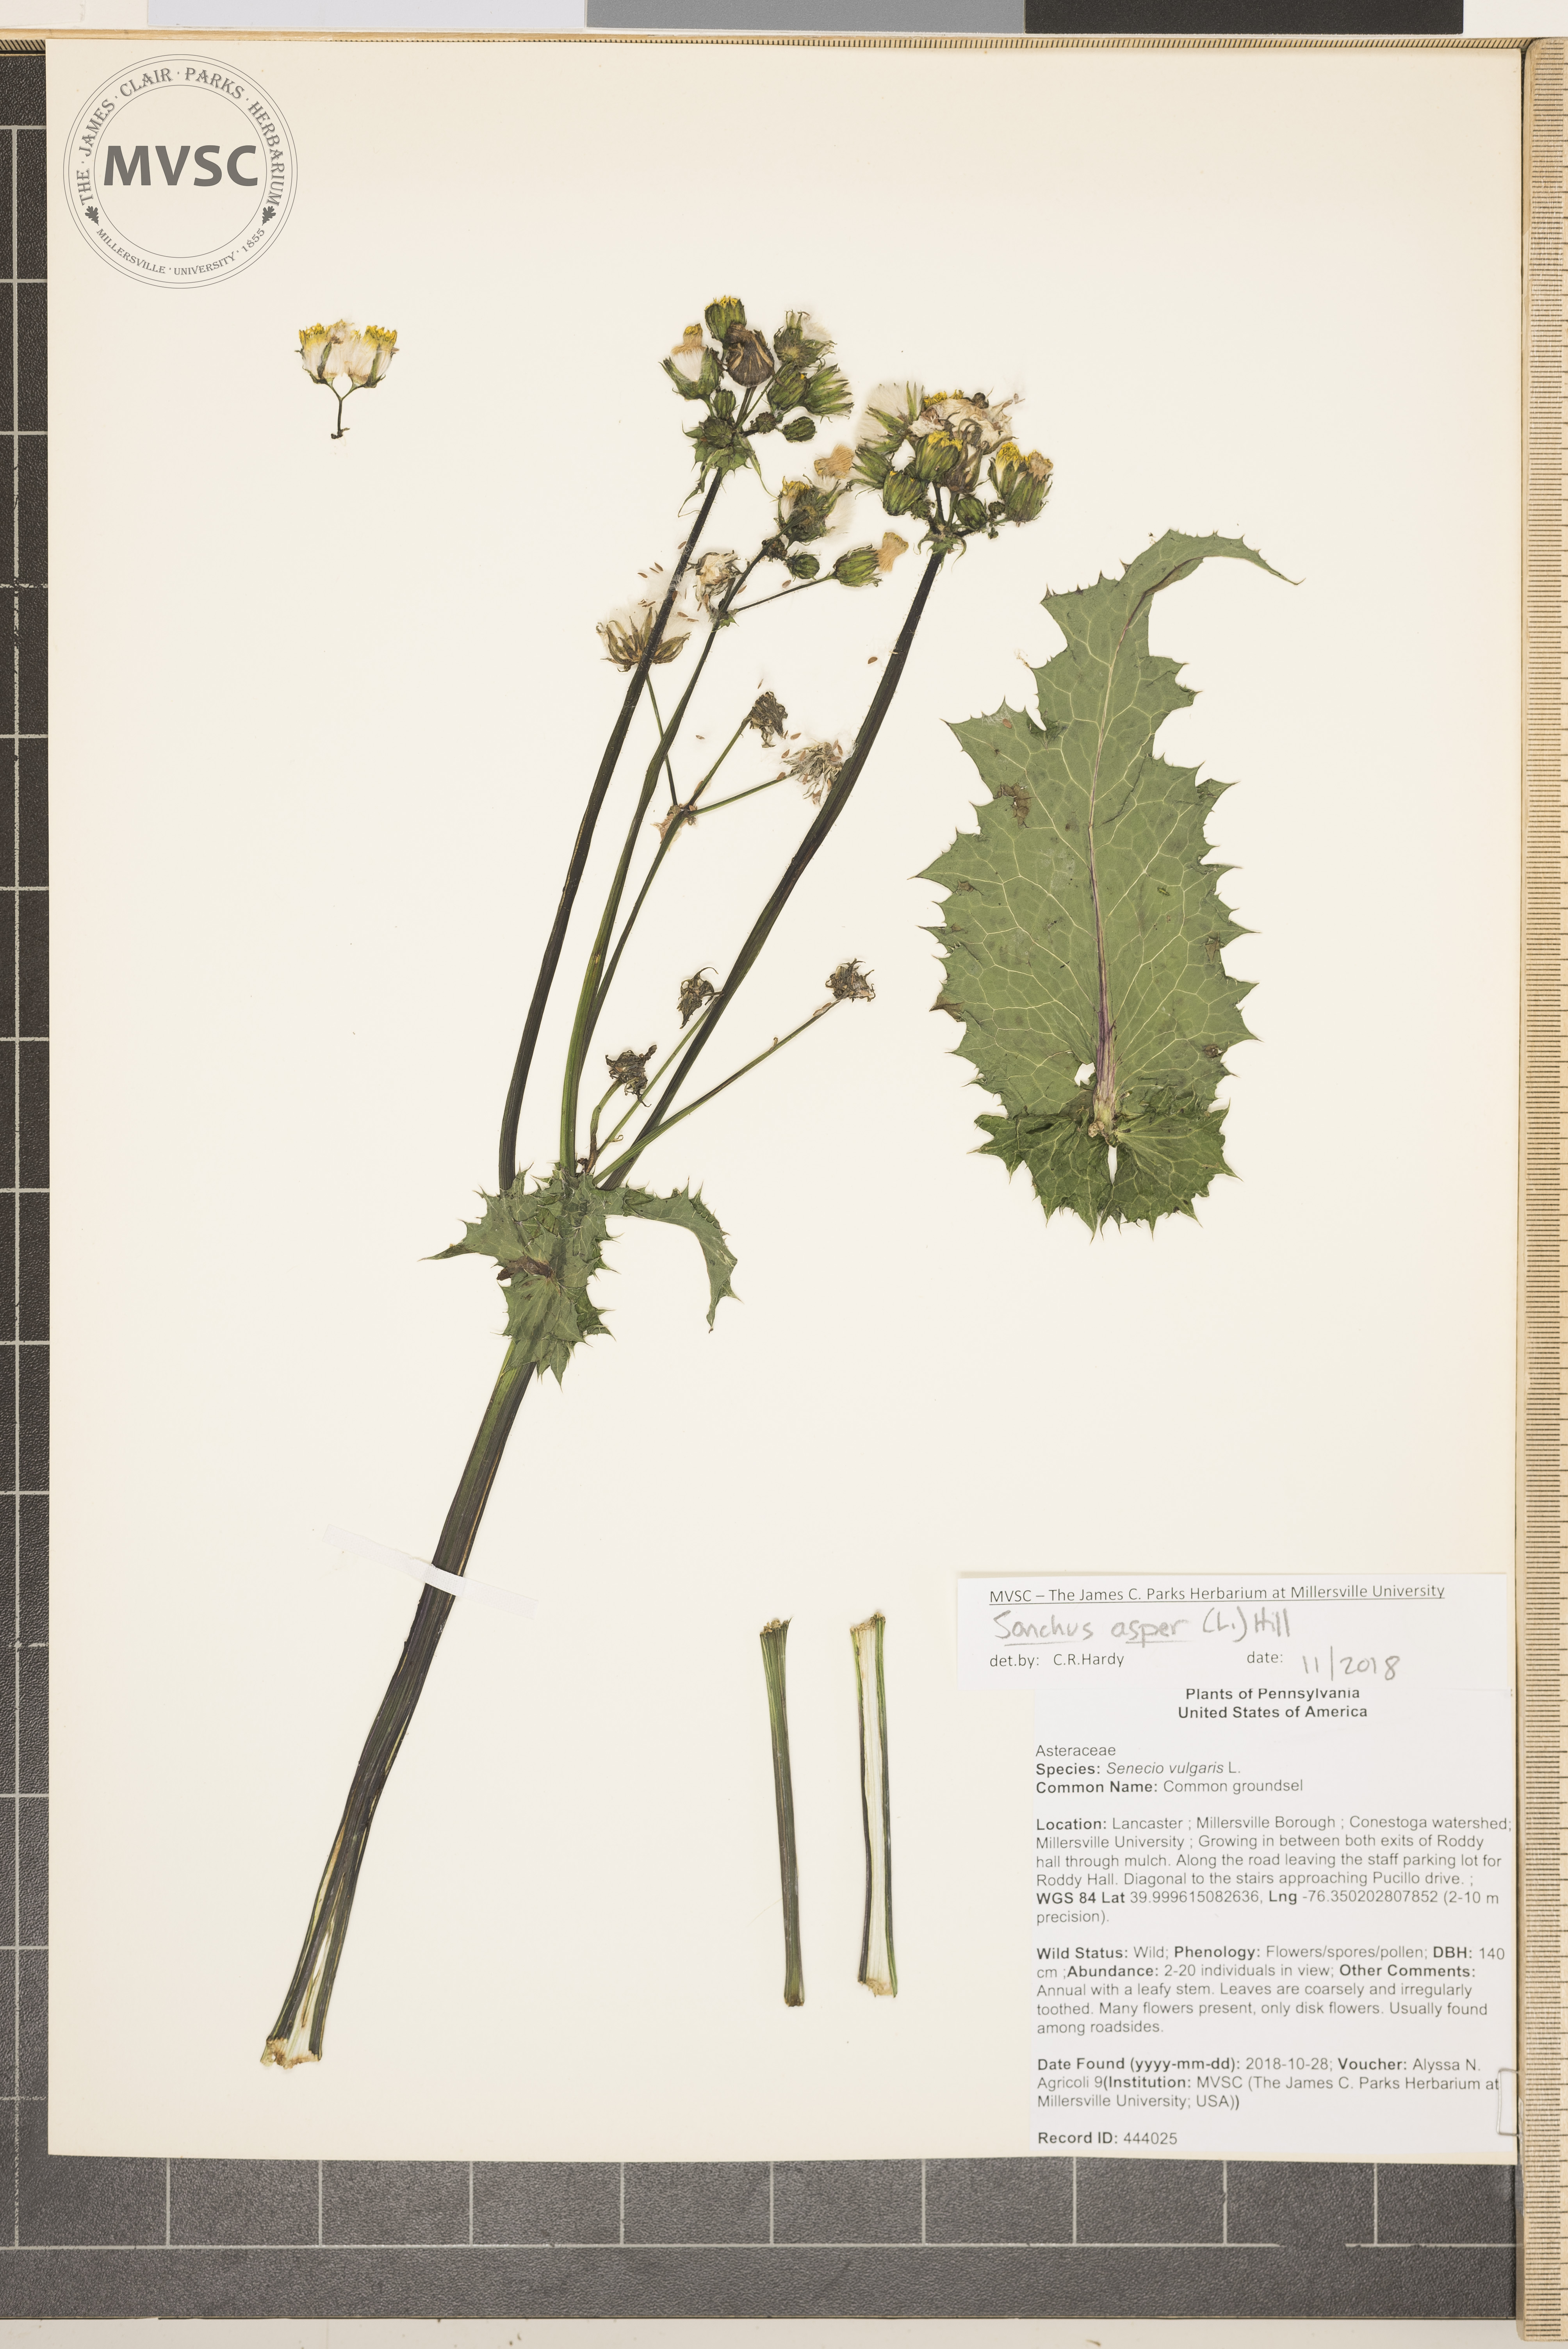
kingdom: Plantae
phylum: Tracheophyta
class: Magnoliopsida
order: Asterales
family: Asteraceae
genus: Sonchus
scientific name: Sonchus asper
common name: Sow-thistle
